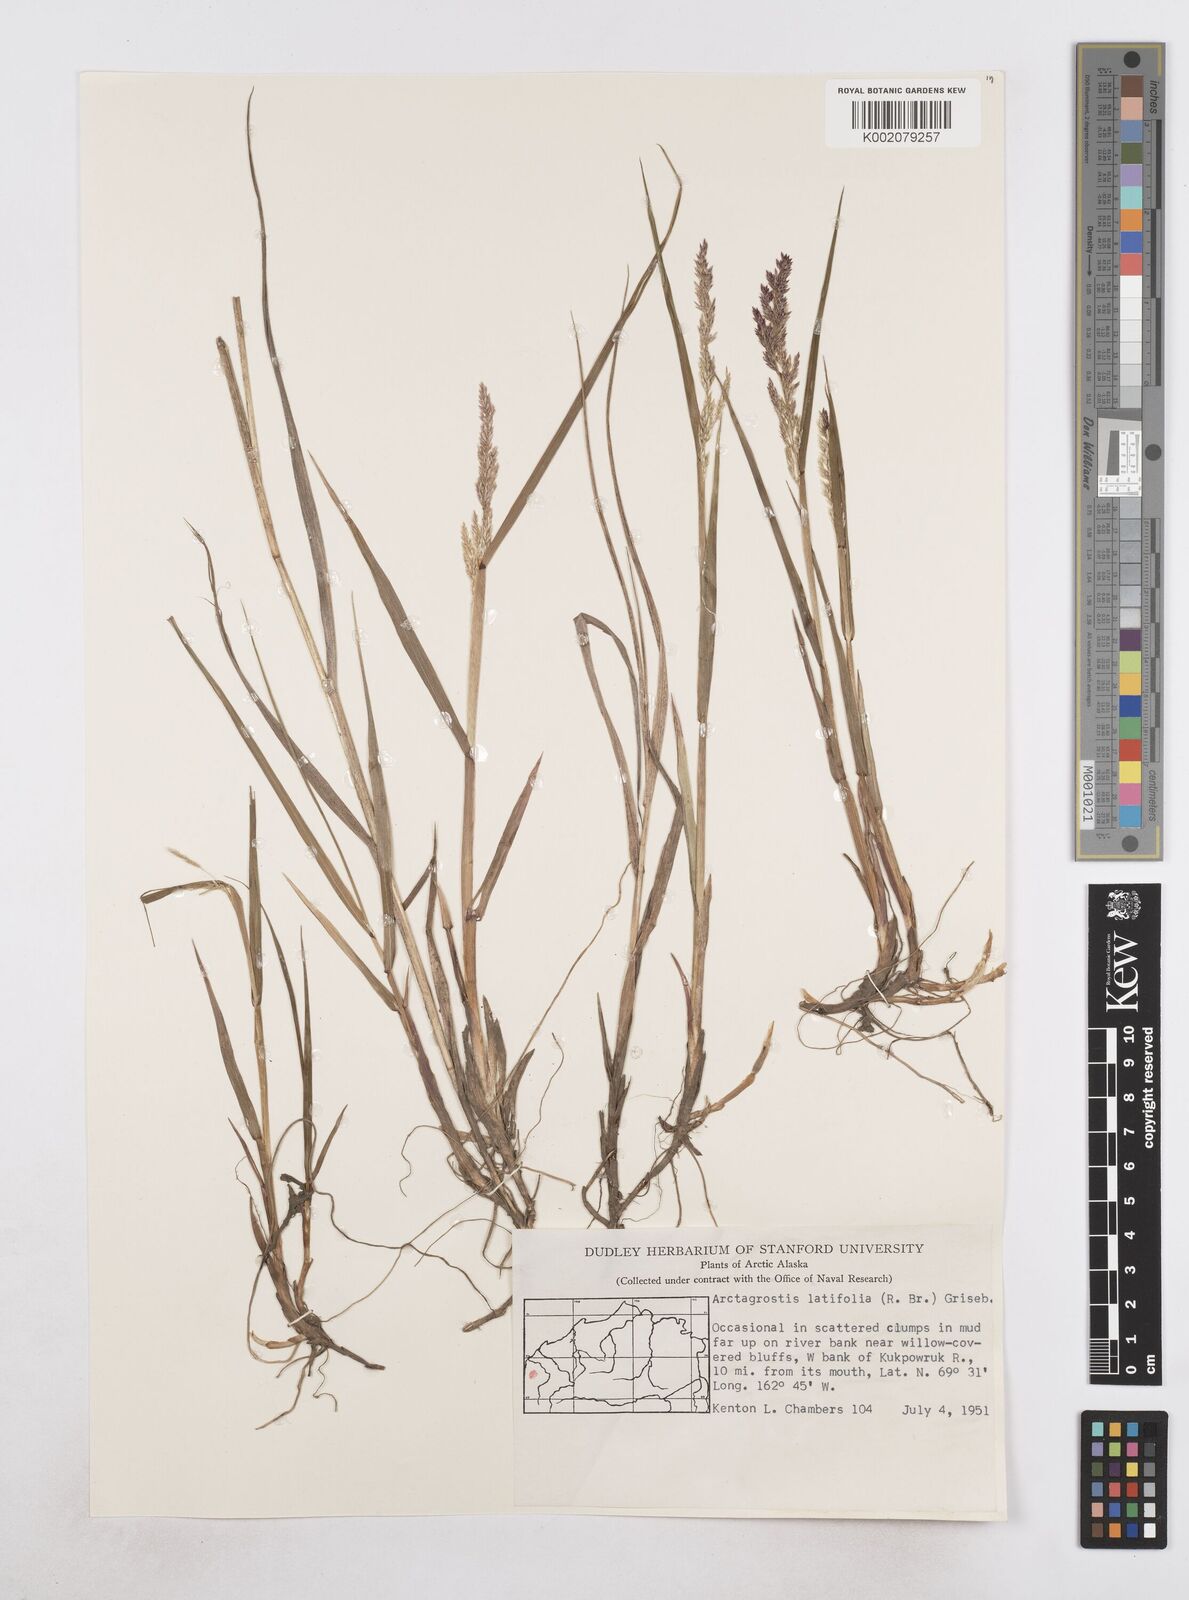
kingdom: Plantae
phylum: Tracheophyta
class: Liliopsida
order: Poales
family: Poaceae
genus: Arctagrostis
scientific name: Arctagrostis latifolia
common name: Arctic grass
